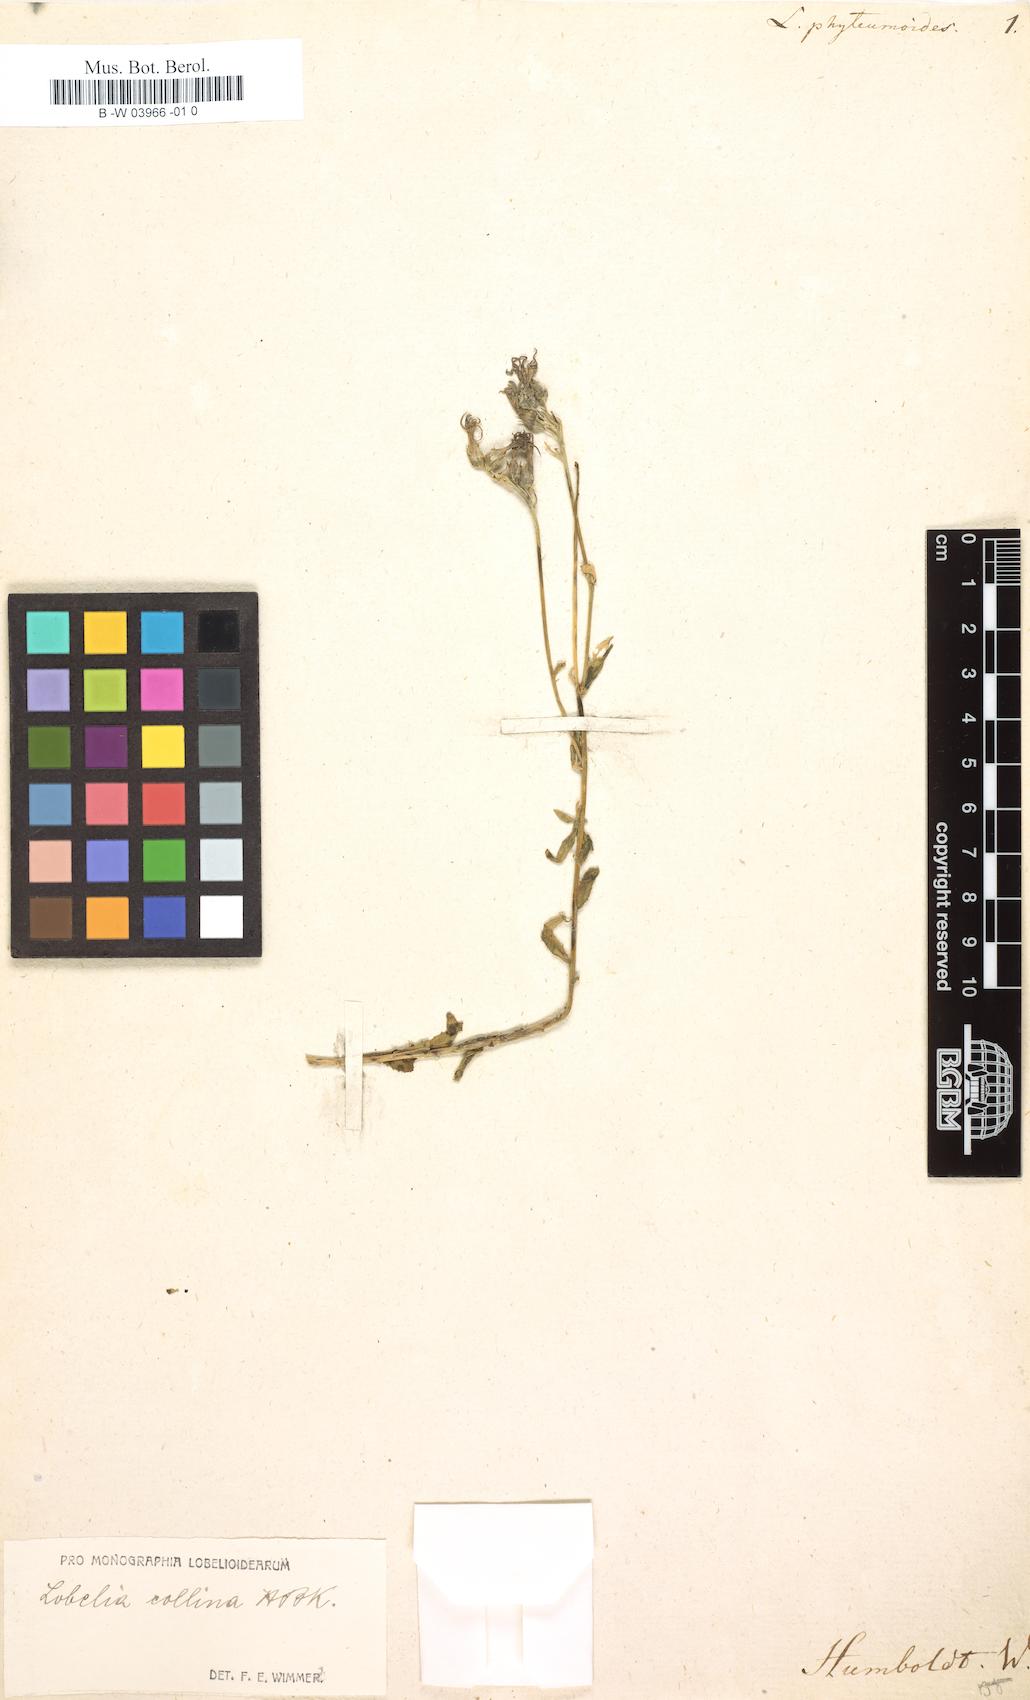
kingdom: Plantae
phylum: Tracheophyta
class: Magnoliopsida
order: Asterales
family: Campanulaceae
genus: Lobelia
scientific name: Lobelia collina
